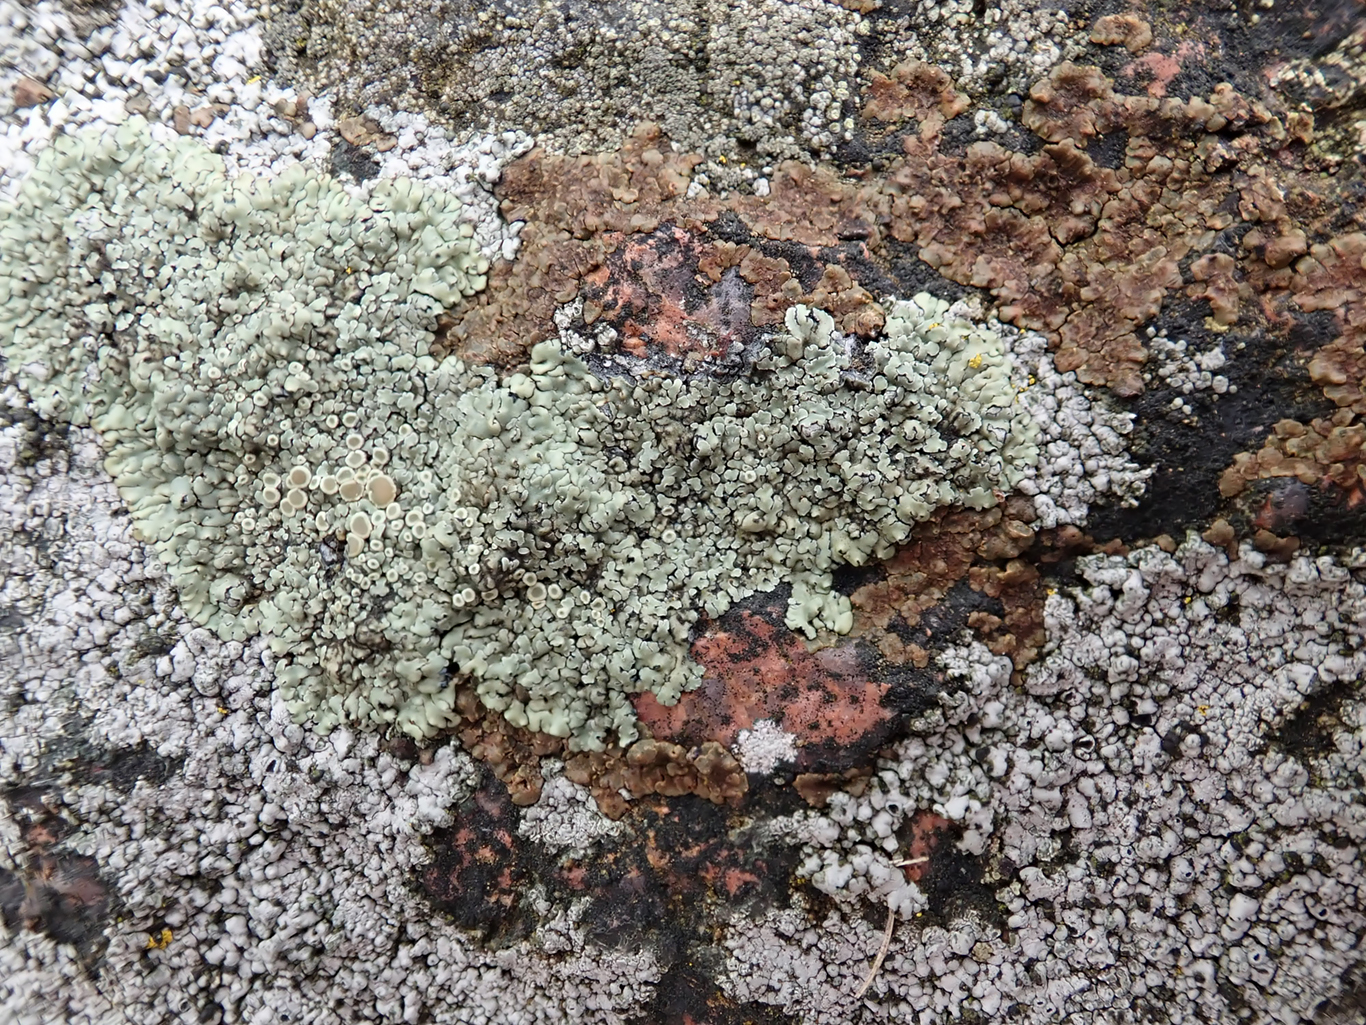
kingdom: Fungi
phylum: Ascomycota
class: Lecanoromycetes
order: Lecanorales
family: Lecanoraceae
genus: Protoparmeliopsis
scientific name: Protoparmeliopsis muralis
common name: randfliget kantskivelav
